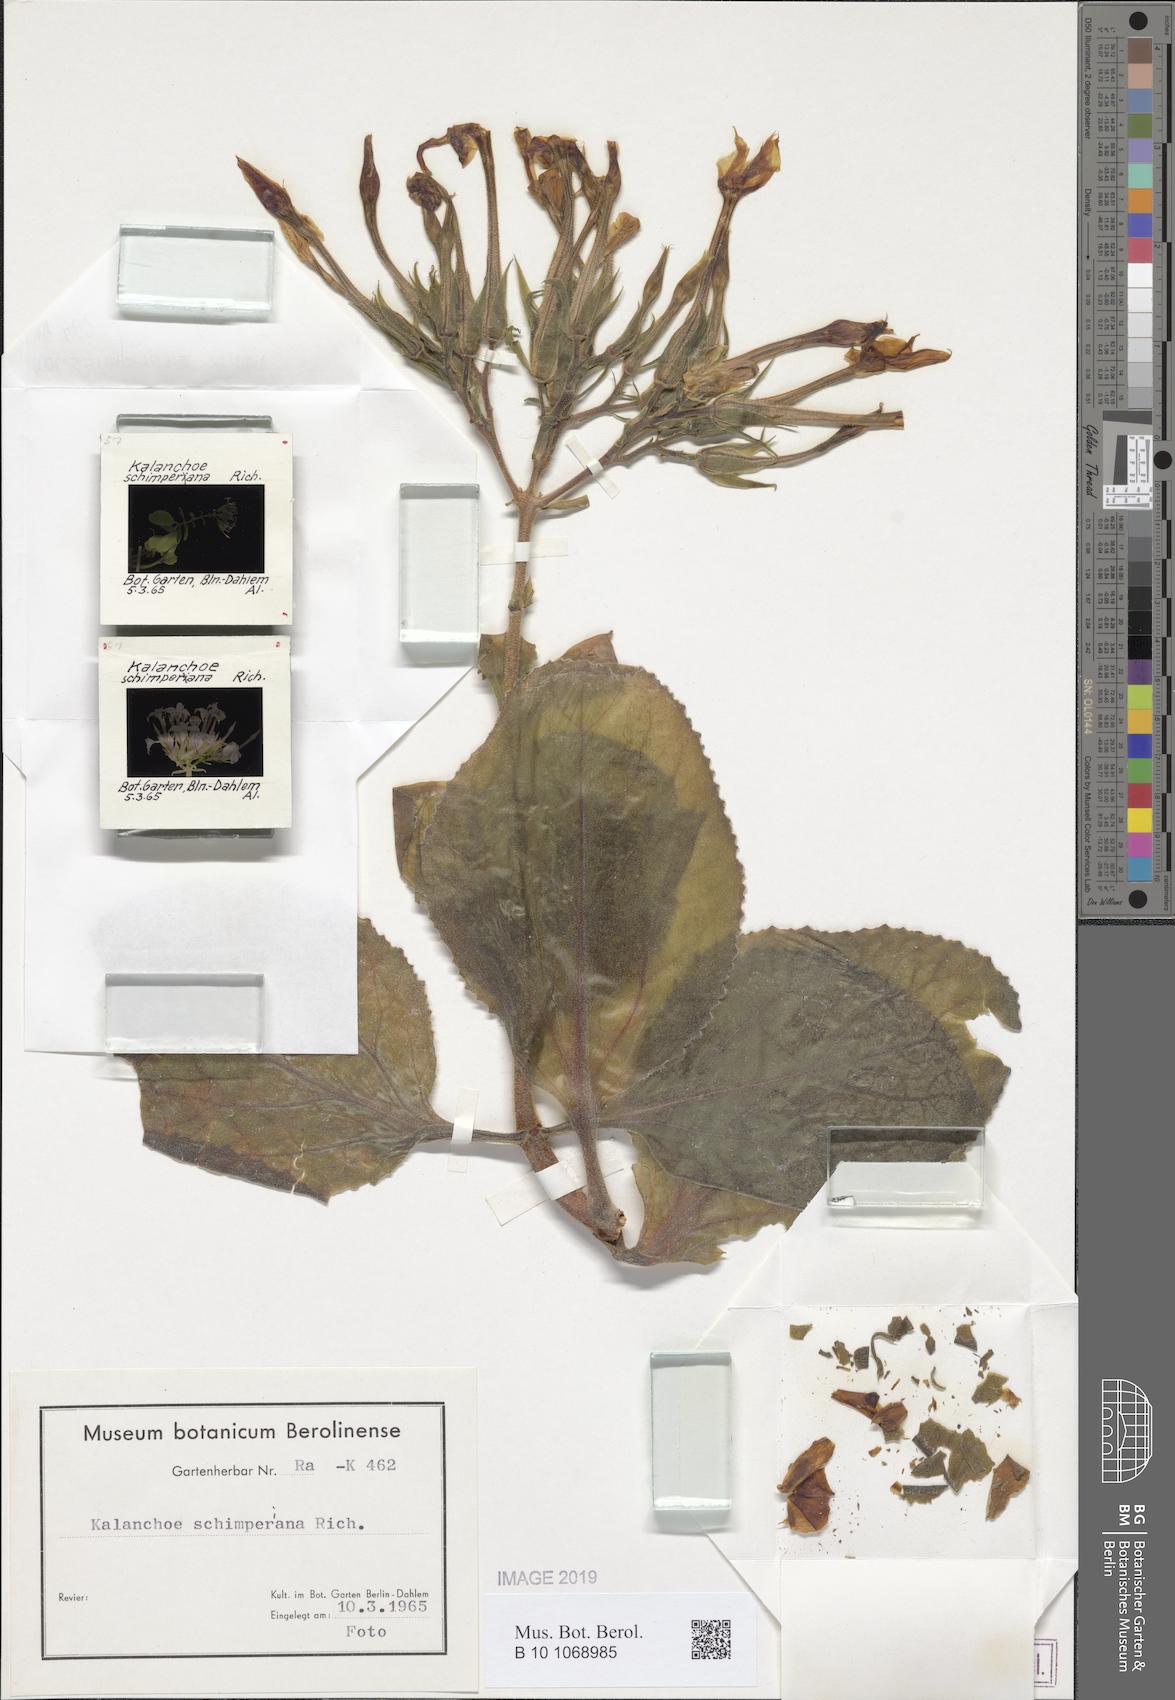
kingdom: Plantae
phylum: Tracheophyta
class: Magnoliopsida
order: Saxifragales
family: Crassulaceae
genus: Kalanchoe
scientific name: Kalanchoe schimperiana
